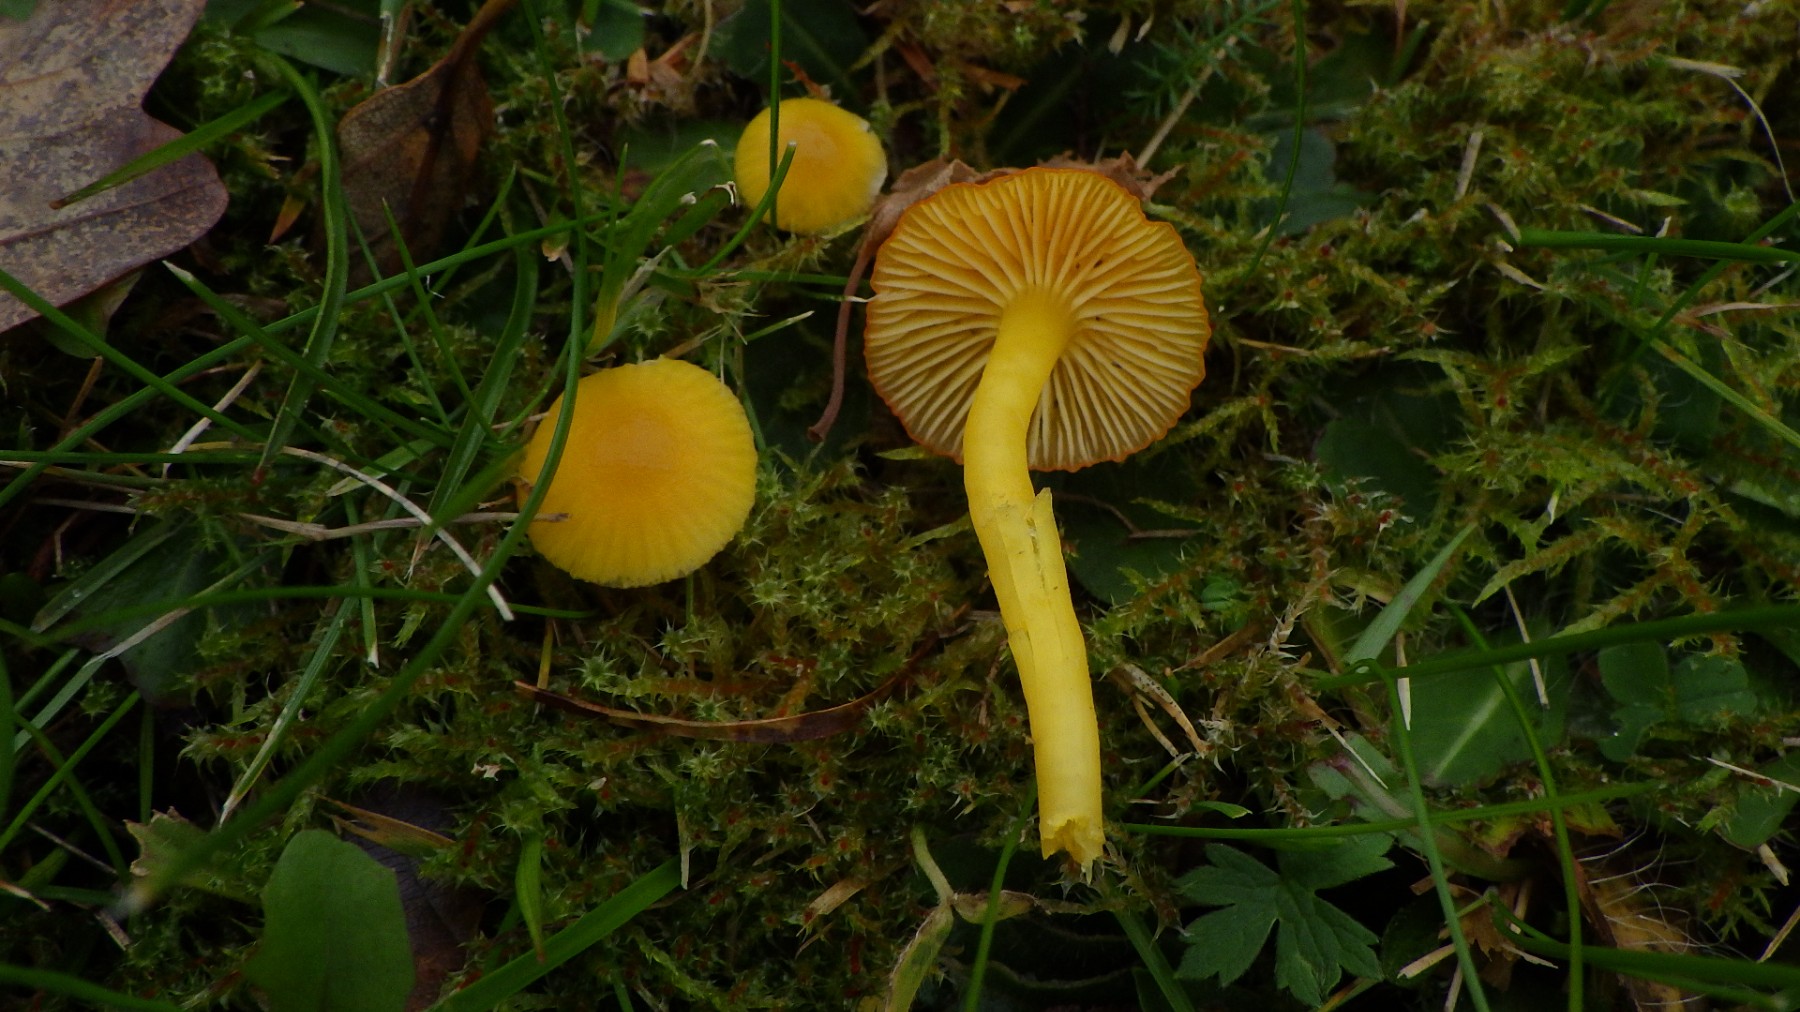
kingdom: Fungi
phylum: Basidiomycota
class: Agaricomycetes
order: Agaricales
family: Hygrophoraceae
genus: Hygrocybe
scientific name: Hygrocybe ceracea
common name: voksgul vokshat
